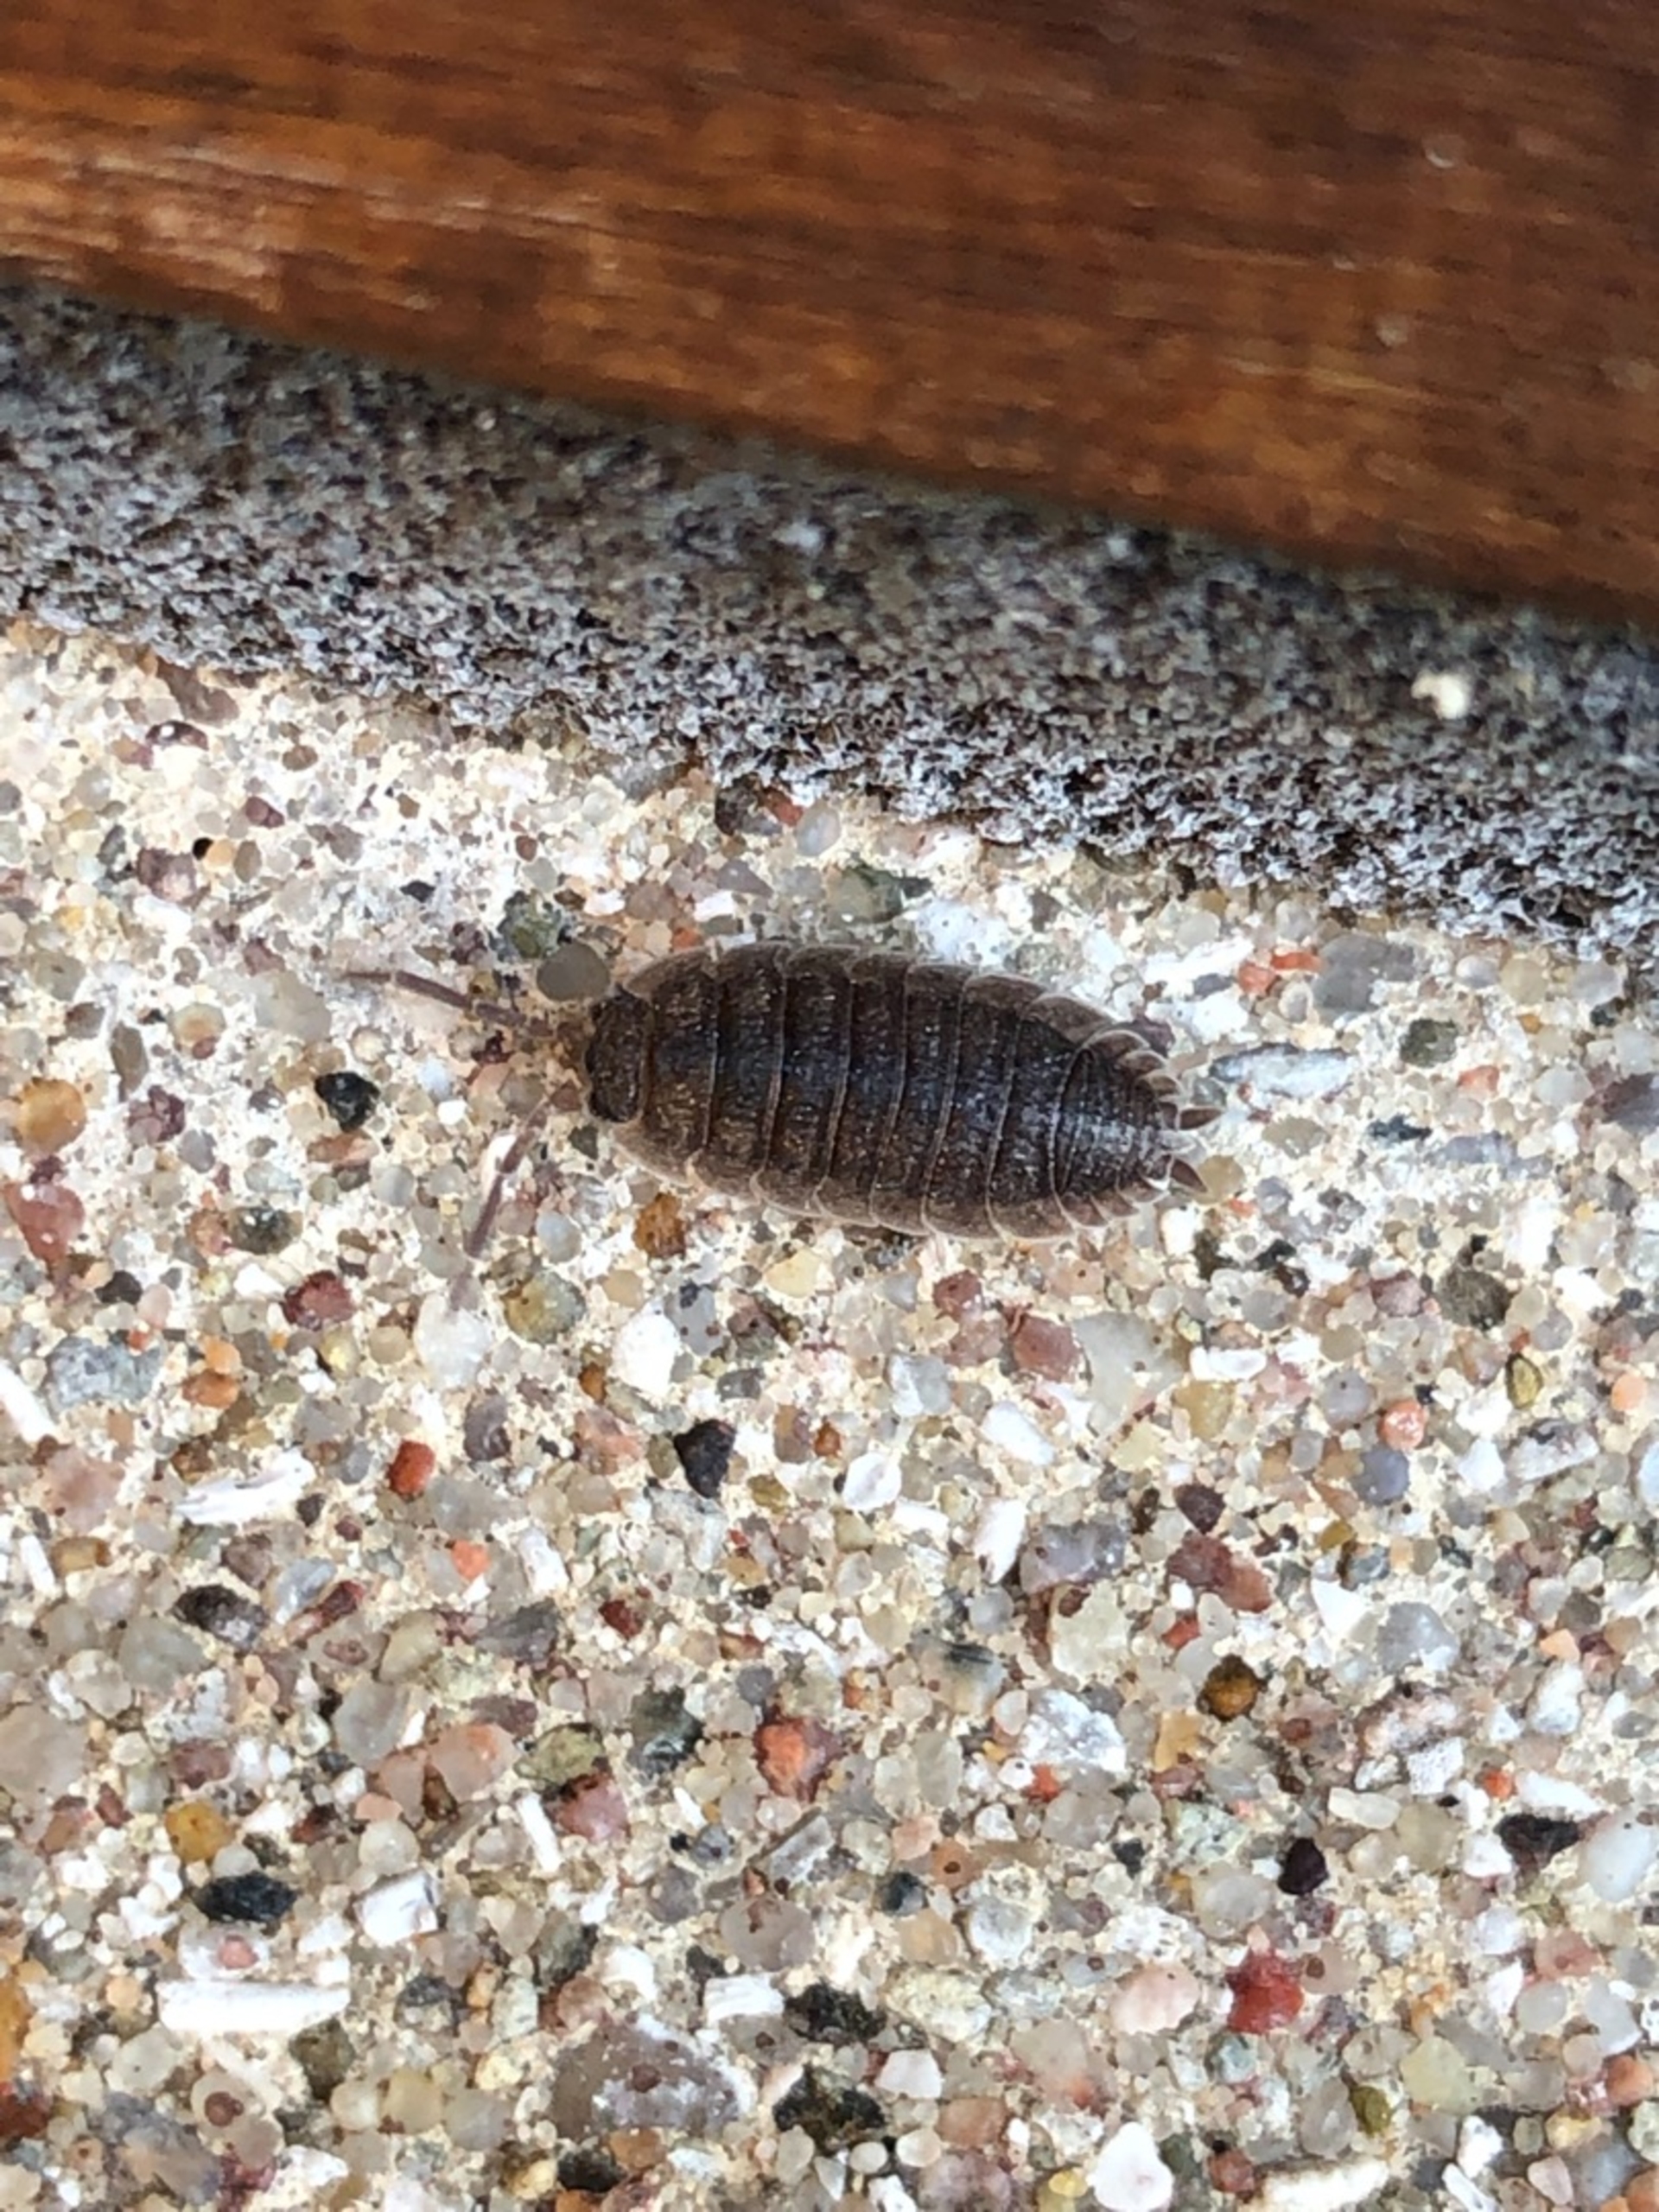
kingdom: Animalia
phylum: Arthropoda
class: Malacostraca
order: Isopoda
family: Porcellionidae
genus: Porcellio
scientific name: Porcellio scaber
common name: Grå bænkebider
